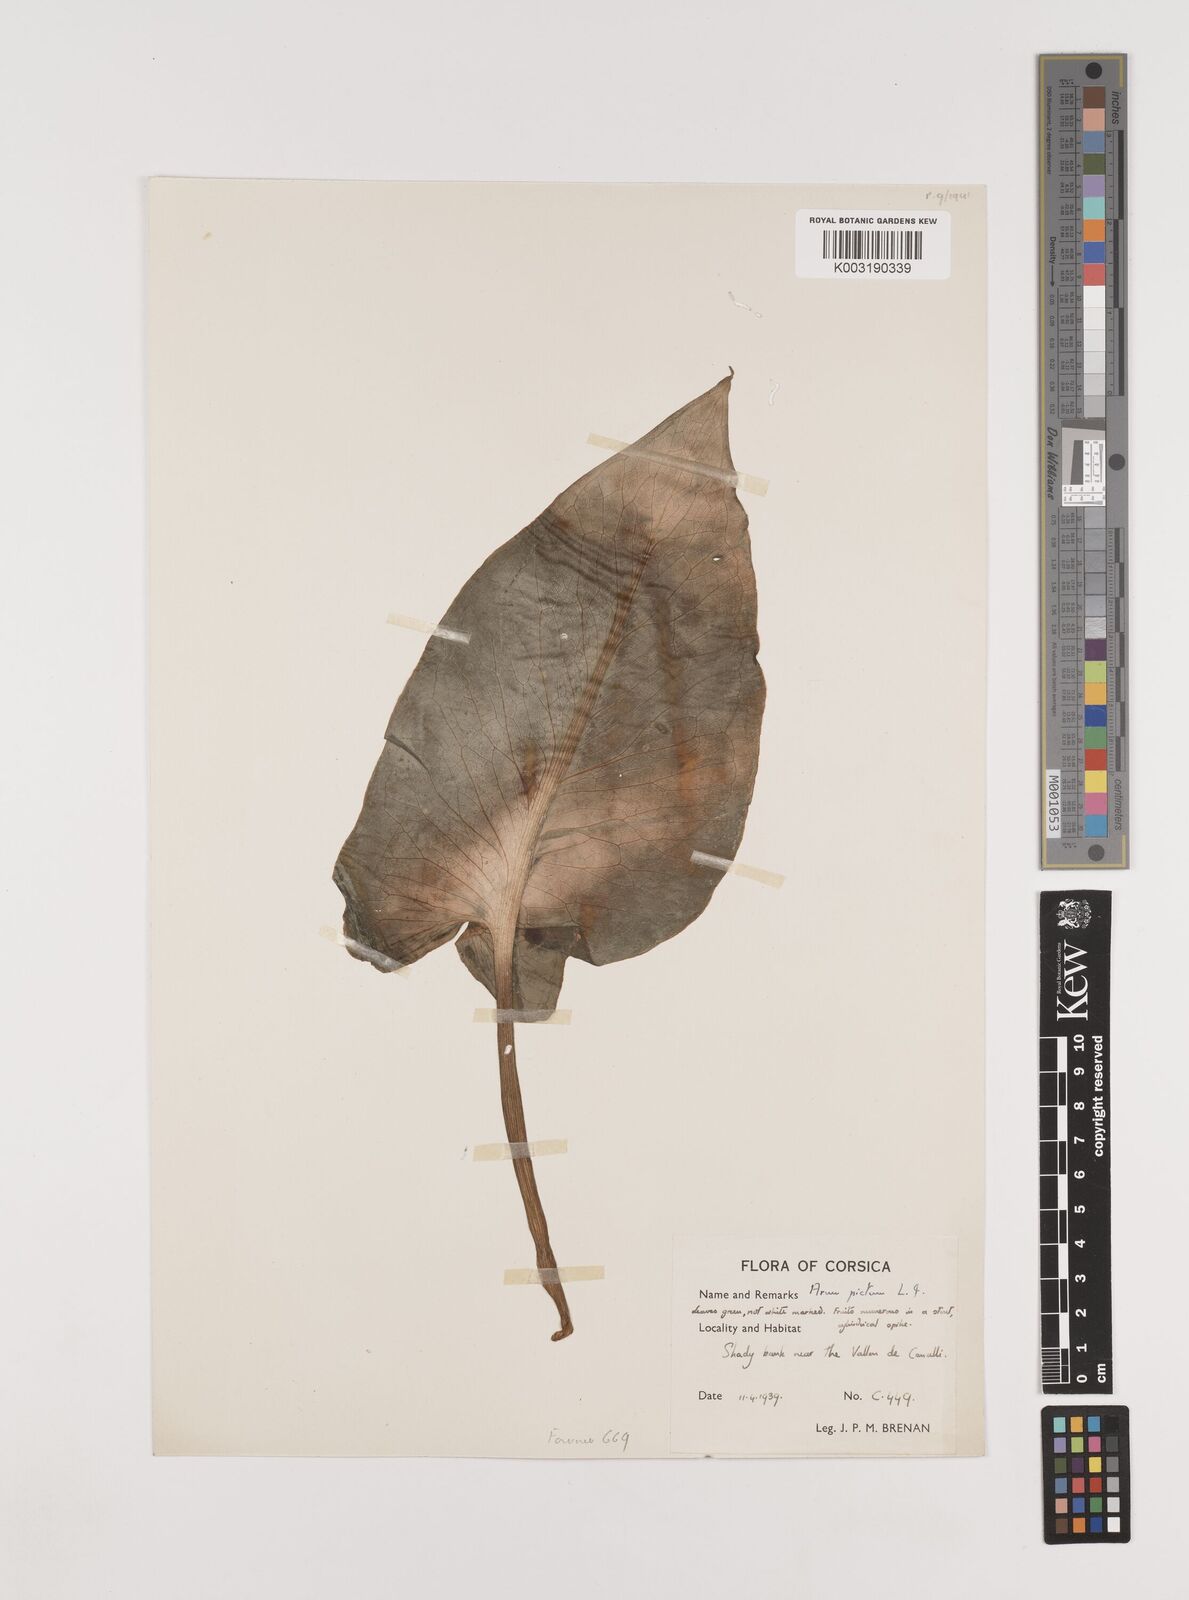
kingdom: Plantae
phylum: Tracheophyta
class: Liliopsida
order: Alismatales
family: Araceae
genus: Arum
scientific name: Arum pictum
